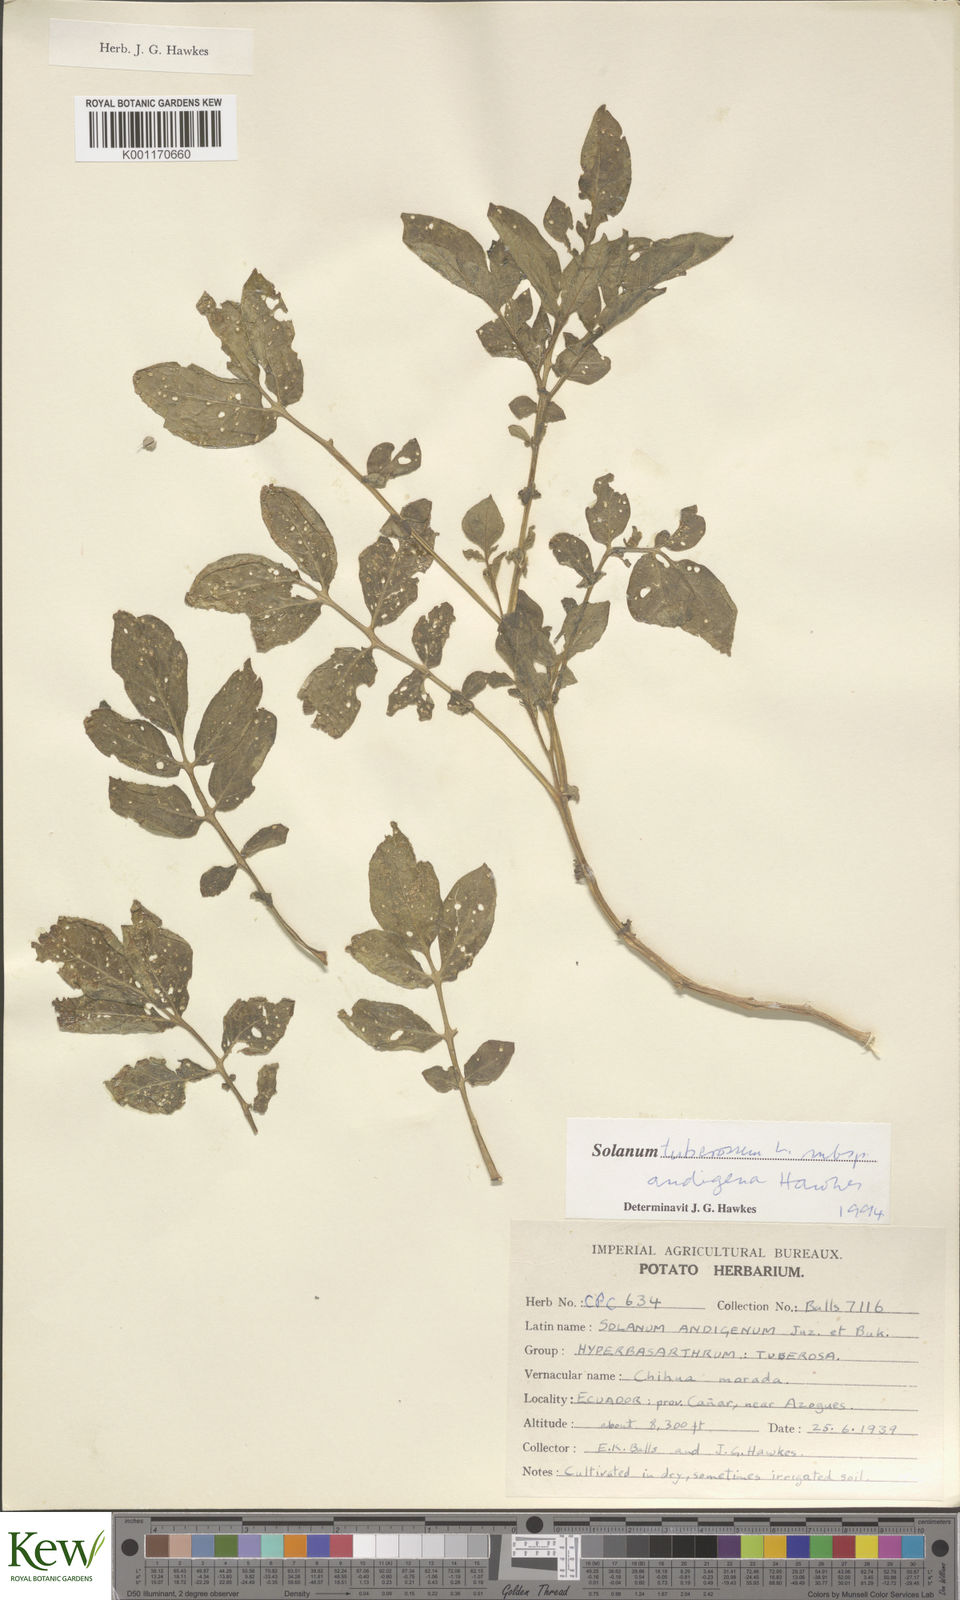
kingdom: Plantae
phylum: Tracheophyta
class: Magnoliopsida
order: Solanales
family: Solanaceae
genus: Solanum
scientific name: Solanum tuberosum
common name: Potato
